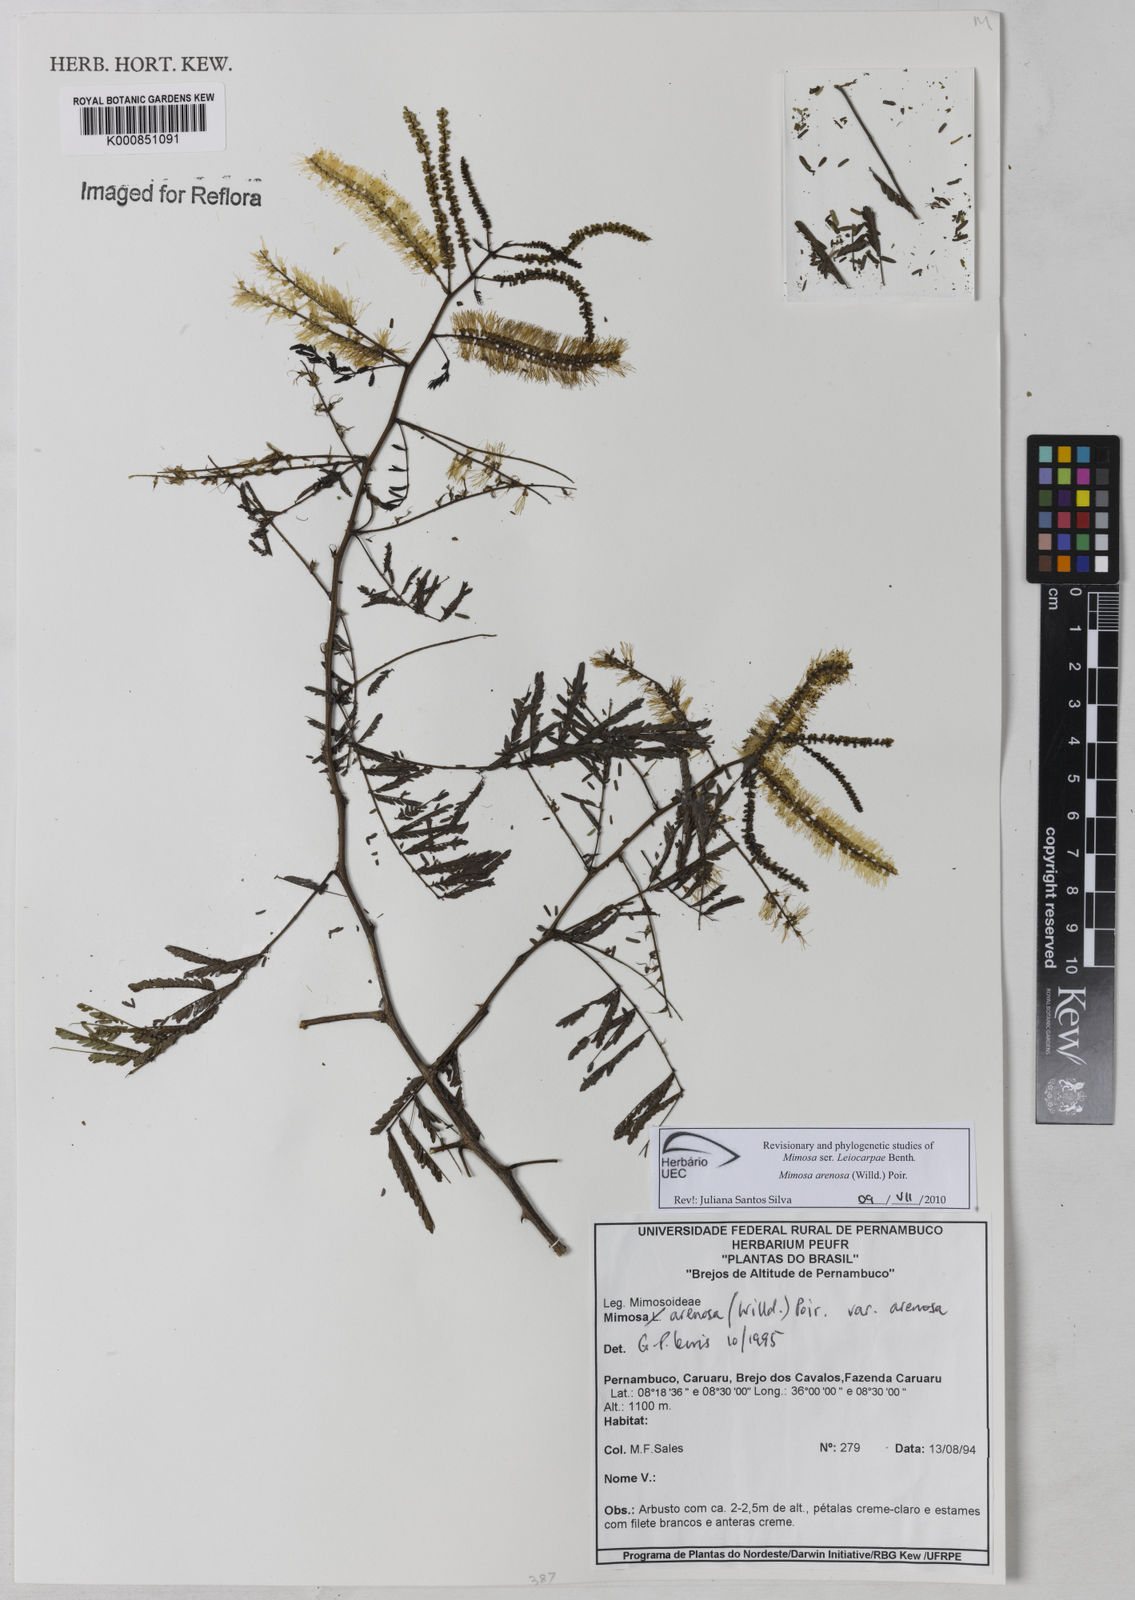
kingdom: Plantae
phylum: Tracheophyta
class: Magnoliopsida
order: Fabales
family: Fabaceae
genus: Mimosa
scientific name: Mimosa arenosa
